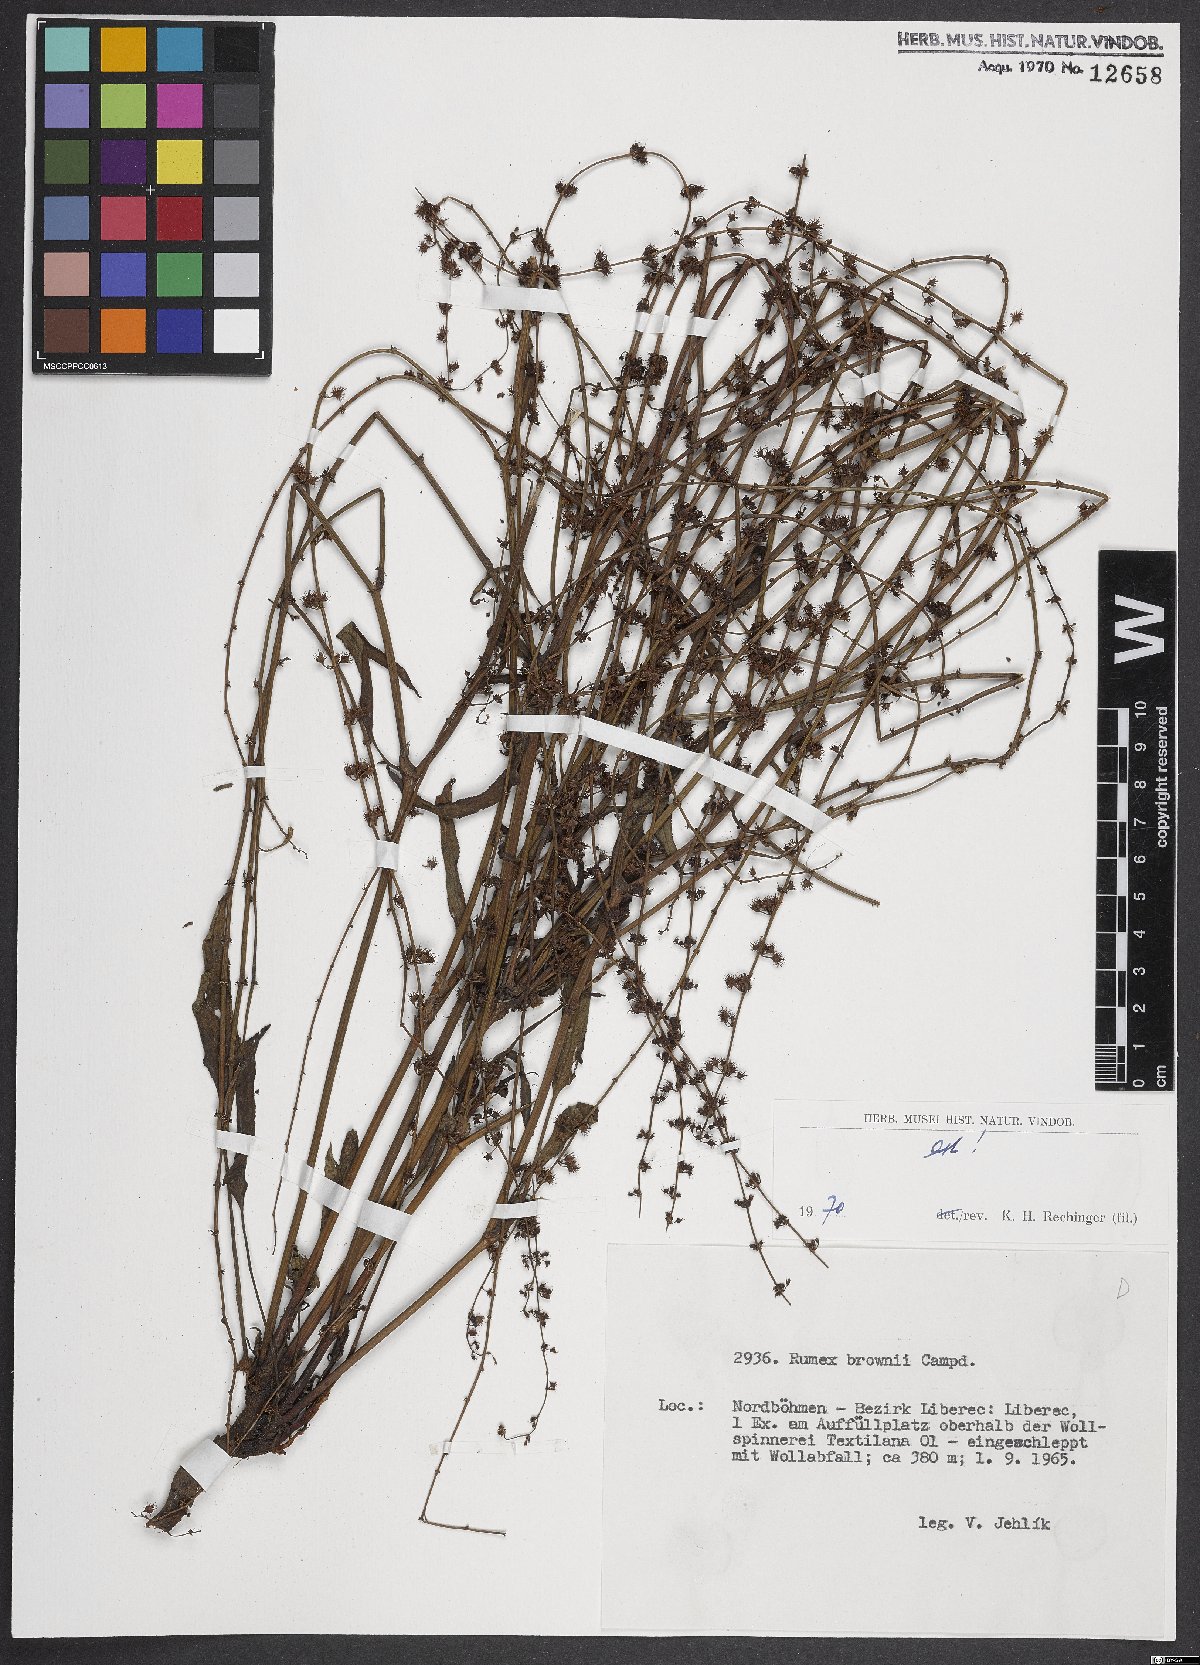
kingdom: Plantae
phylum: Tracheophyta
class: Magnoliopsida
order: Caryophyllales
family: Polygonaceae
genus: Rumex
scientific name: Rumex brownii
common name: Hooked dock
